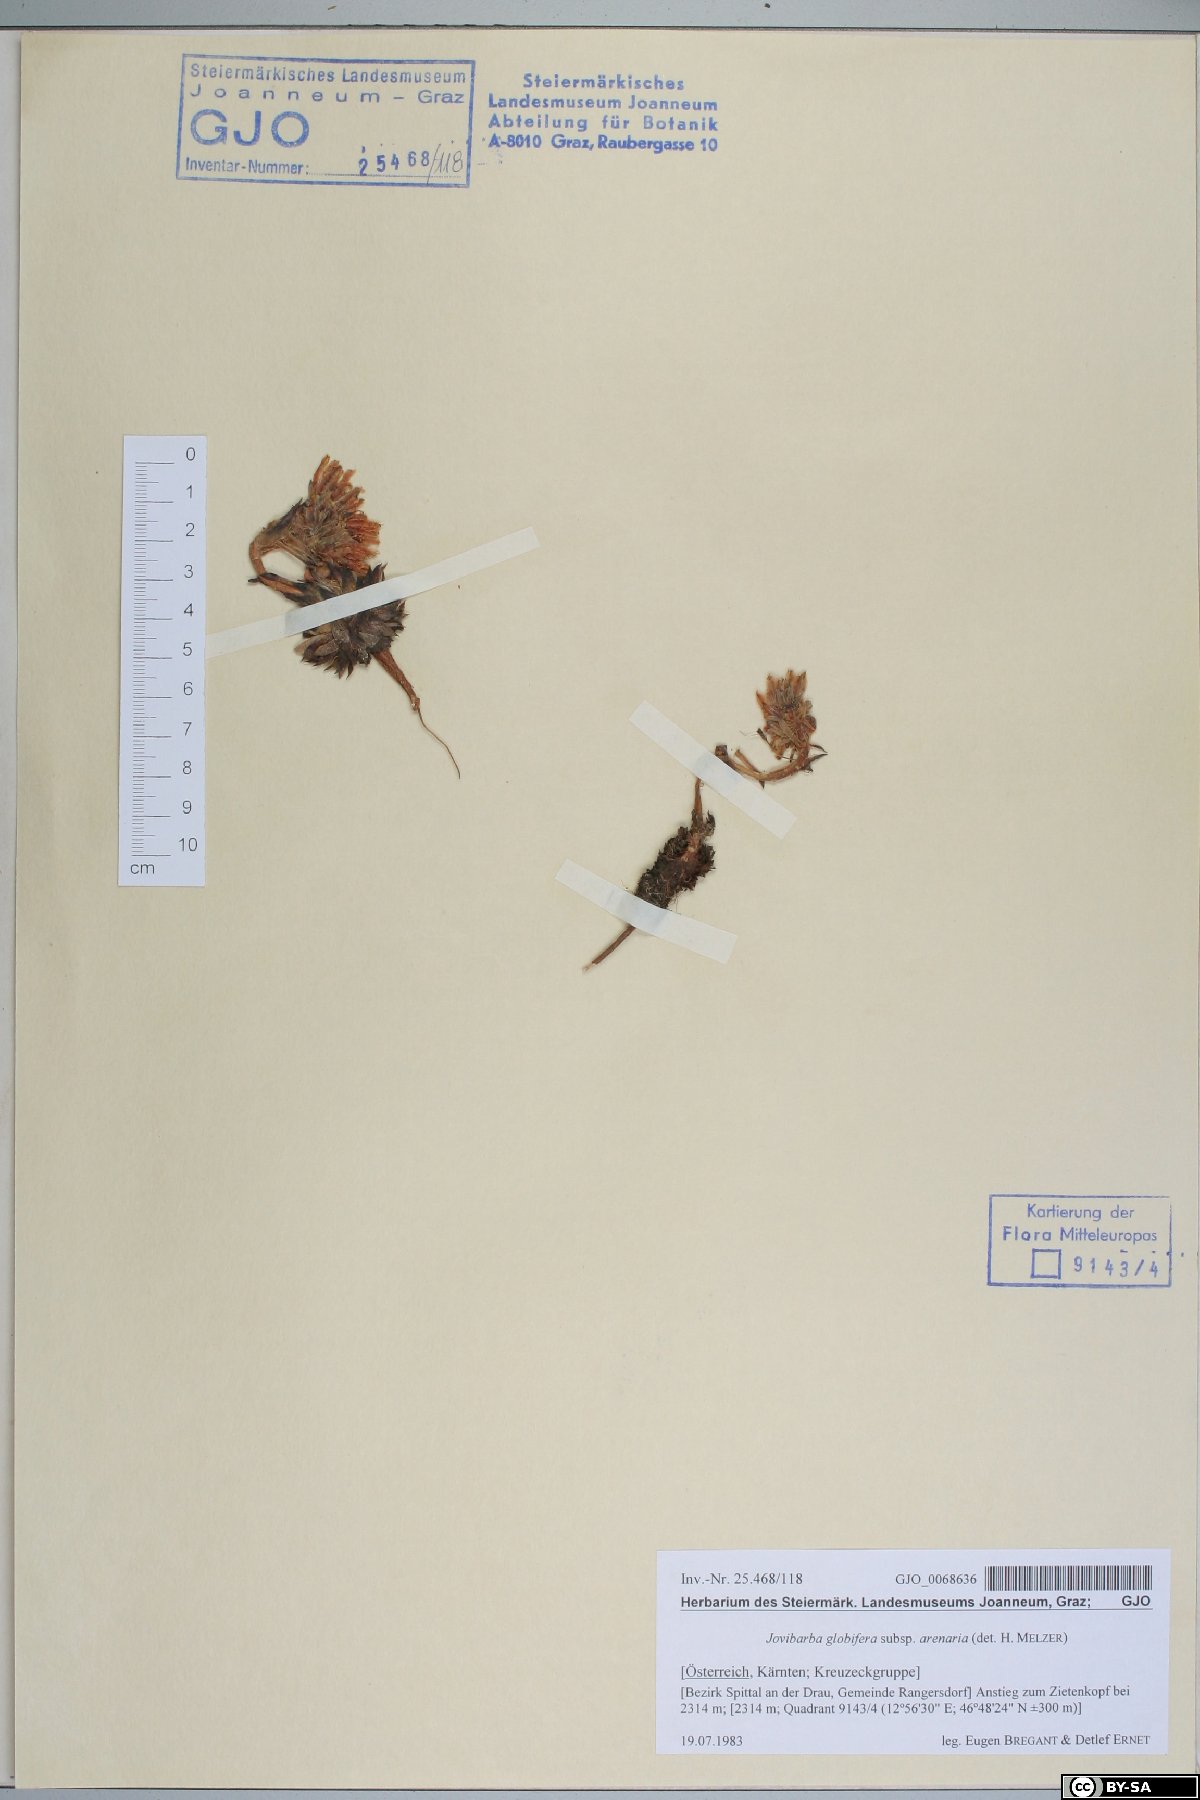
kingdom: Plantae
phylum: Tracheophyta
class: Magnoliopsida
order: Saxifragales
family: Crassulaceae
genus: Sempervivum
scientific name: Sempervivum globiferum
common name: Rolling hen-and-chicks
